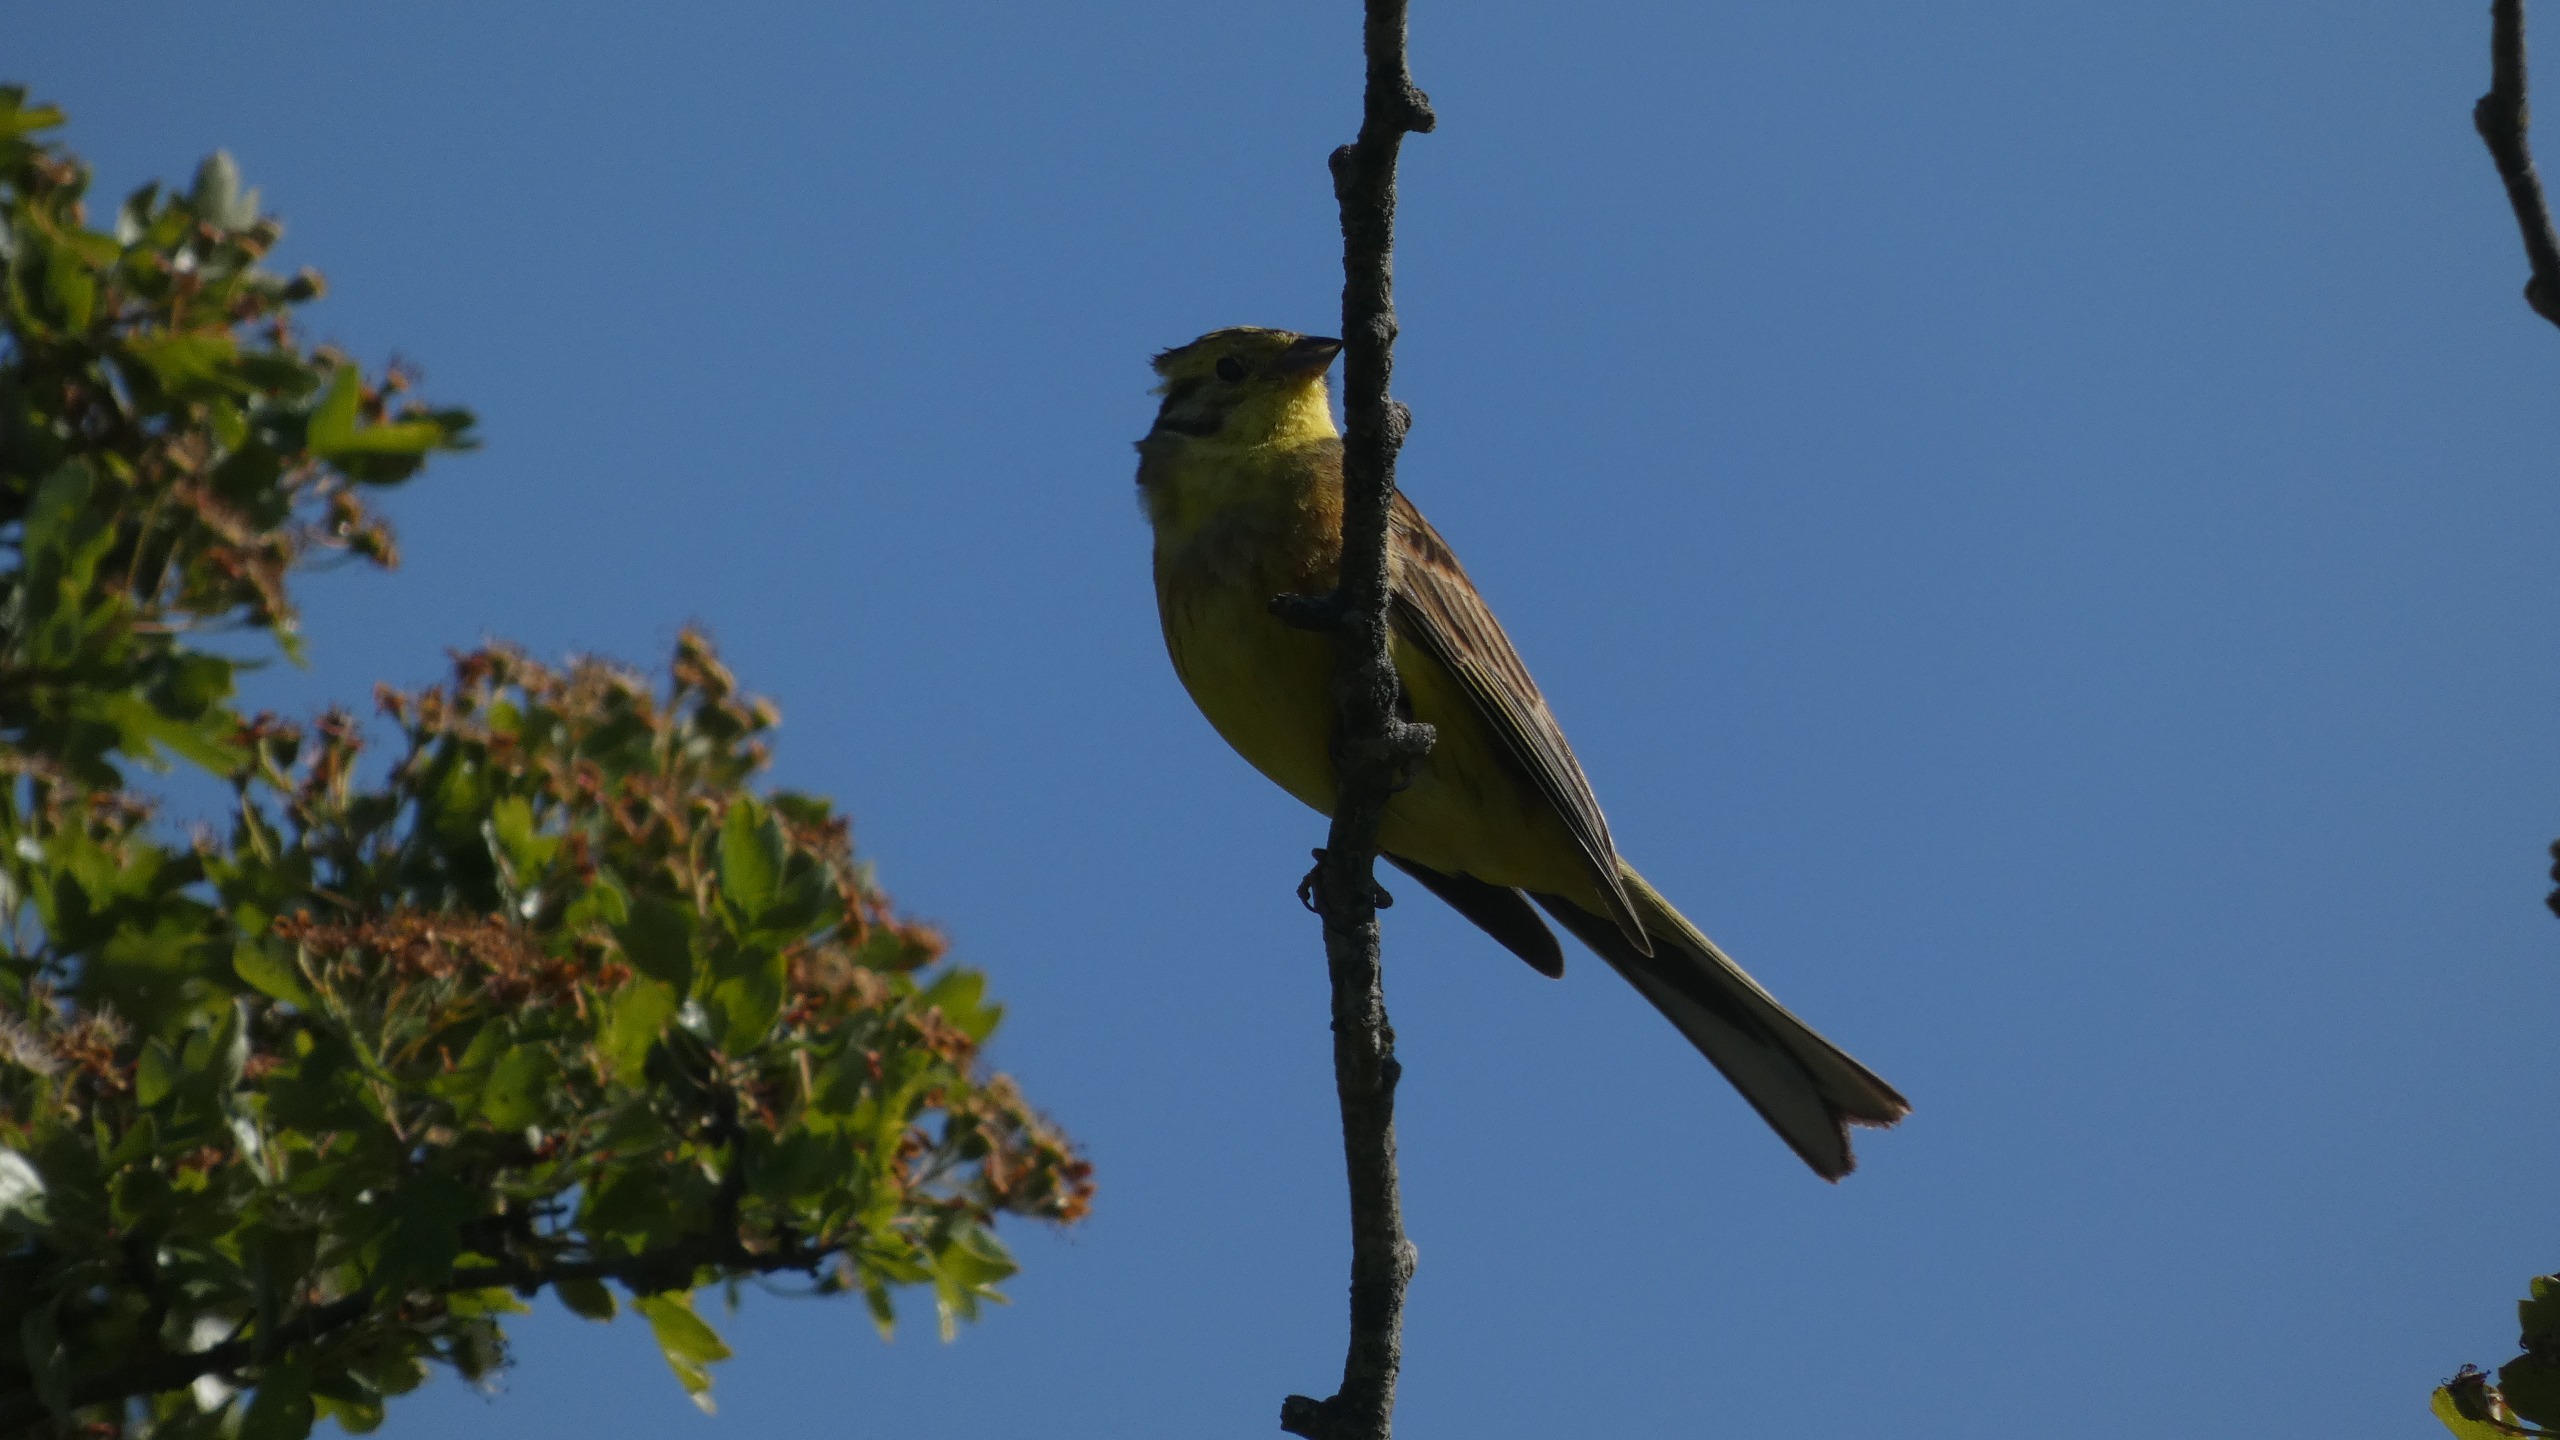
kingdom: Animalia
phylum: Chordata
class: Aves
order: Passeriformes
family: Emberizidae
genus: Emberiza
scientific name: Emberiza citrinella
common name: Gulspurv
